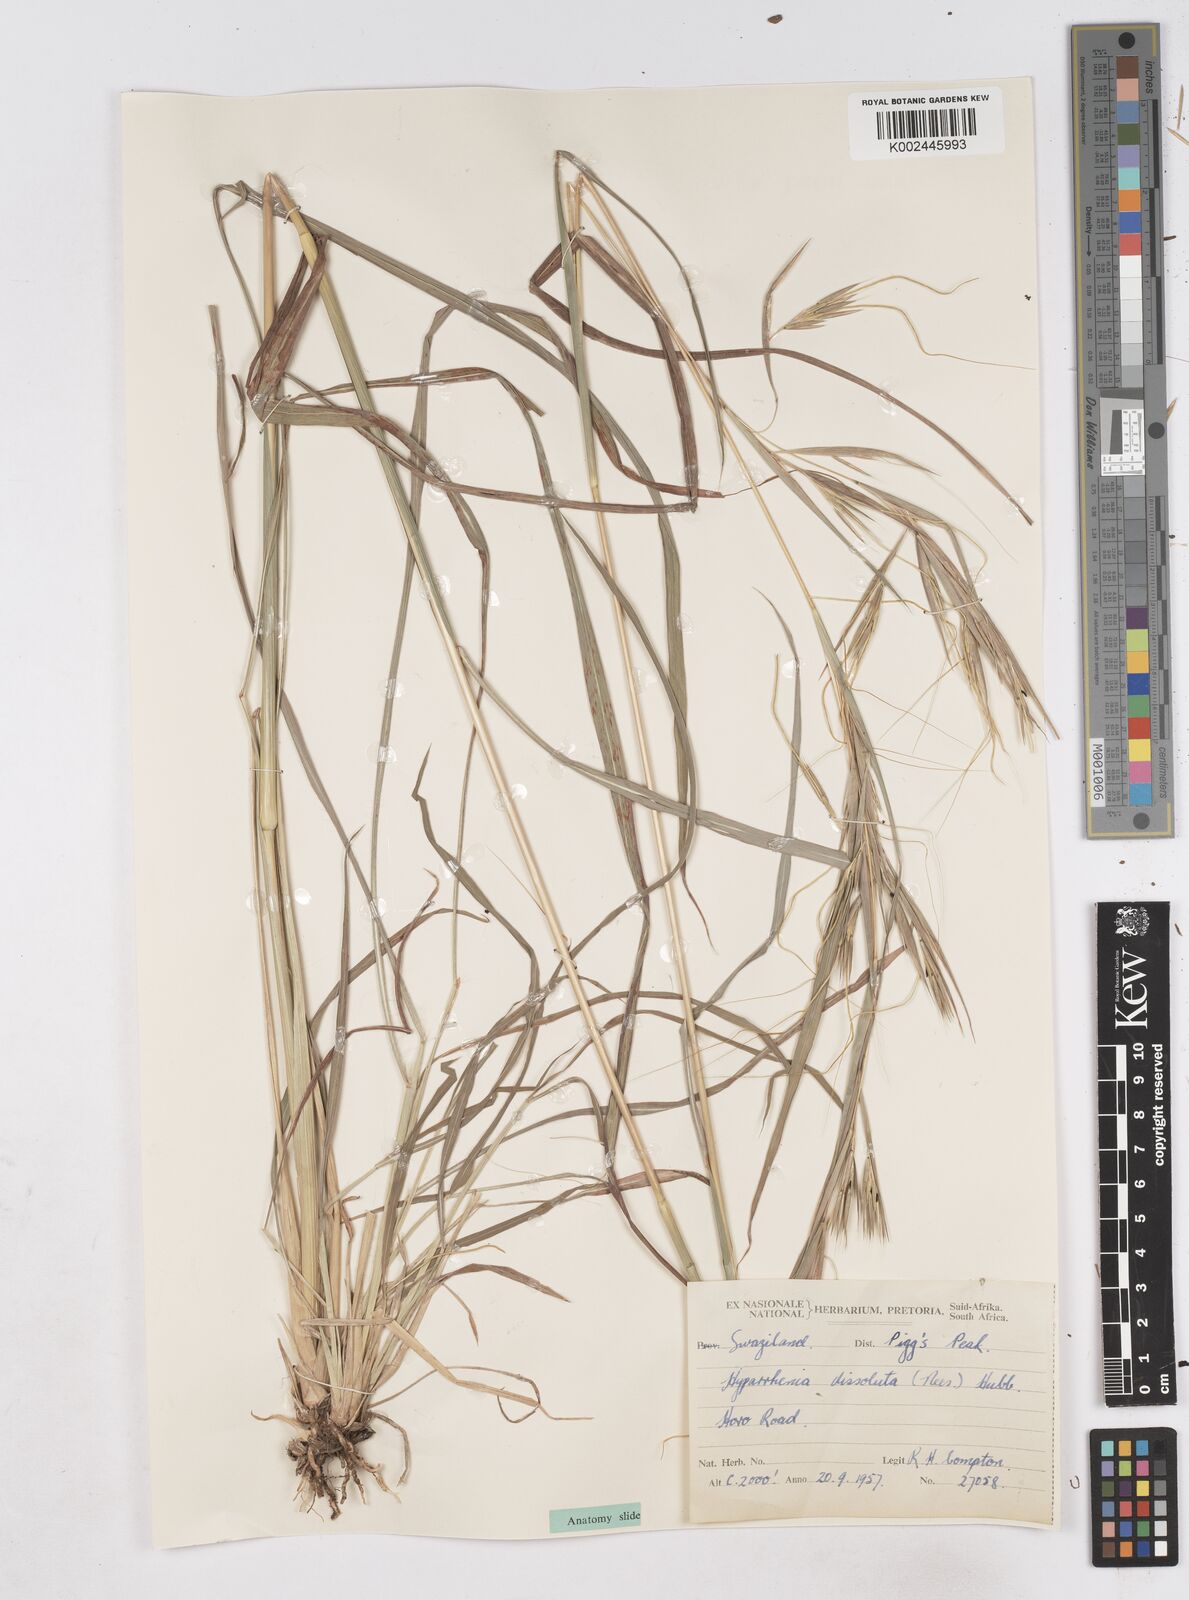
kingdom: Plantae
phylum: Tracheophyta
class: Liliopsida
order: Poales
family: Poaceae
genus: Hyperthelia
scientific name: Hyperthelia dissoluta
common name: Yellow thatching grass
